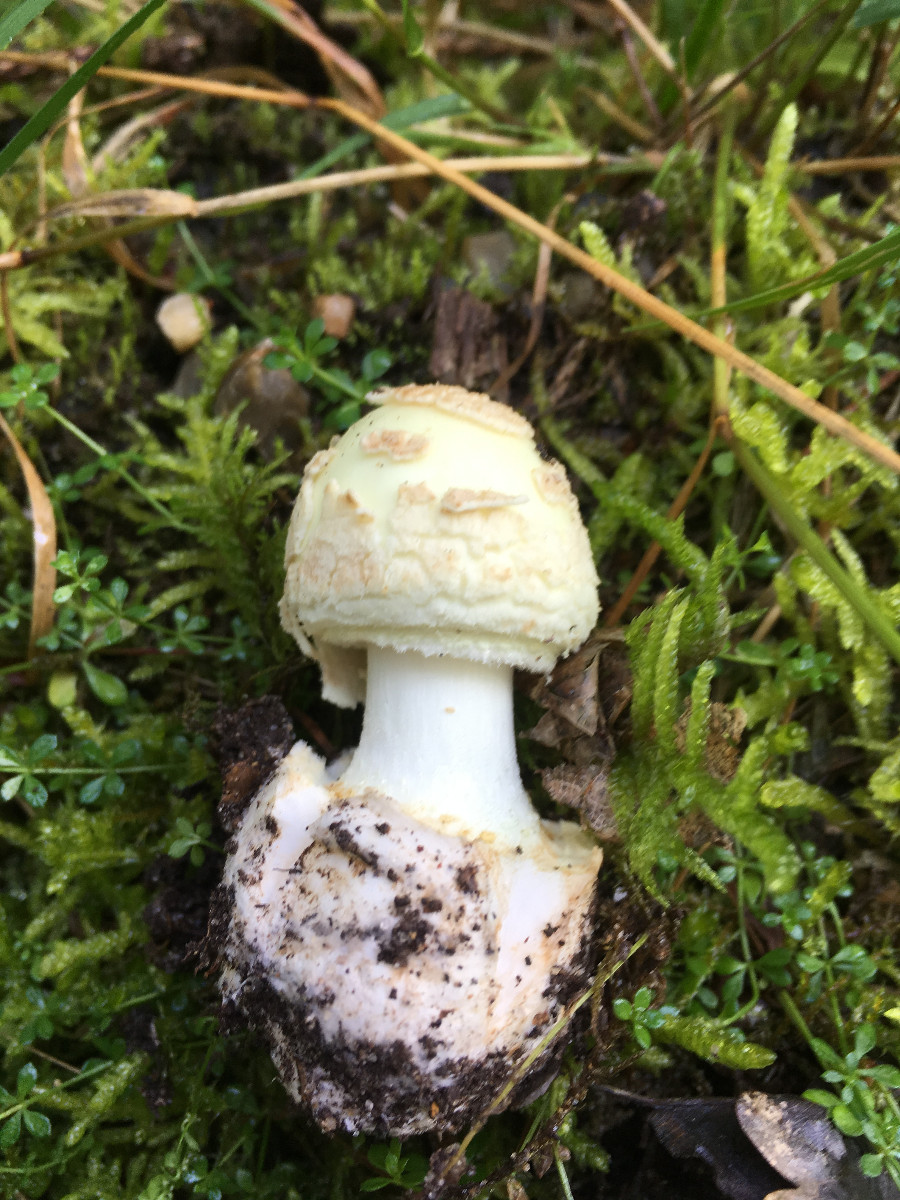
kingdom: Fungi
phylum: Basidiomycota
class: Agaricomycetes
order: Agaricales
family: Amanitaceae
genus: Amanita
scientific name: Amanita citrina
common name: kugleknoldet fluesvamp
